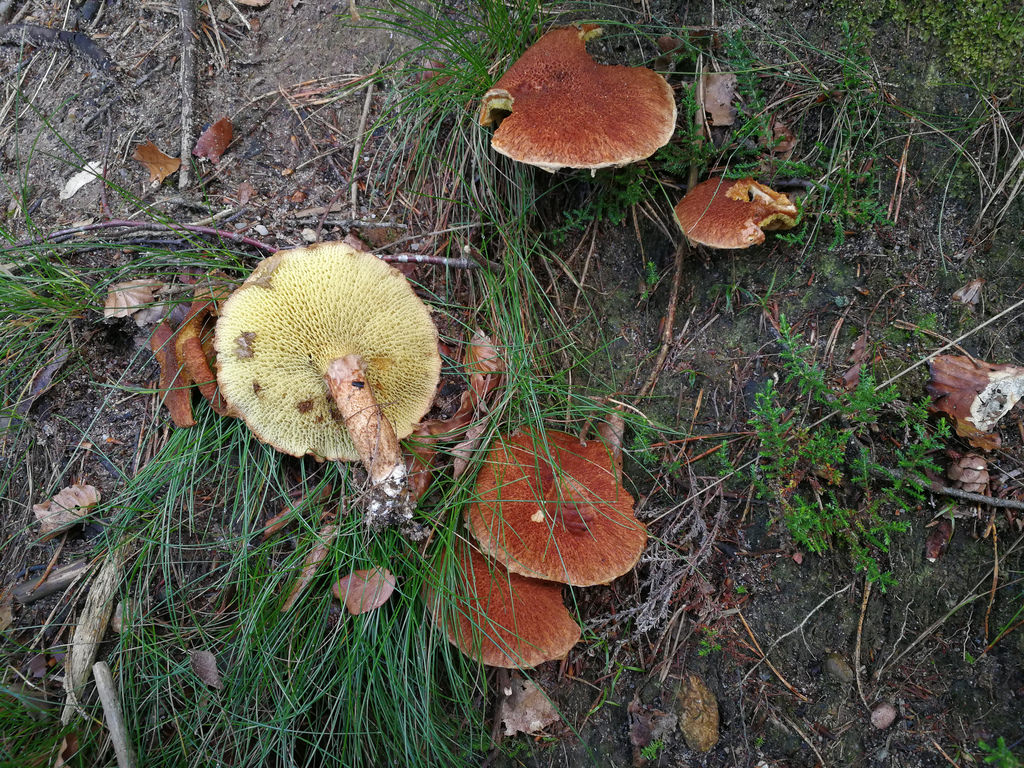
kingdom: Fungi
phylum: Basidiomycota
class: Agaricomycetes
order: Boletales
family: Suillaceae
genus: Suillus
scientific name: Suillus cavipes
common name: hulstokket slimrørhat
